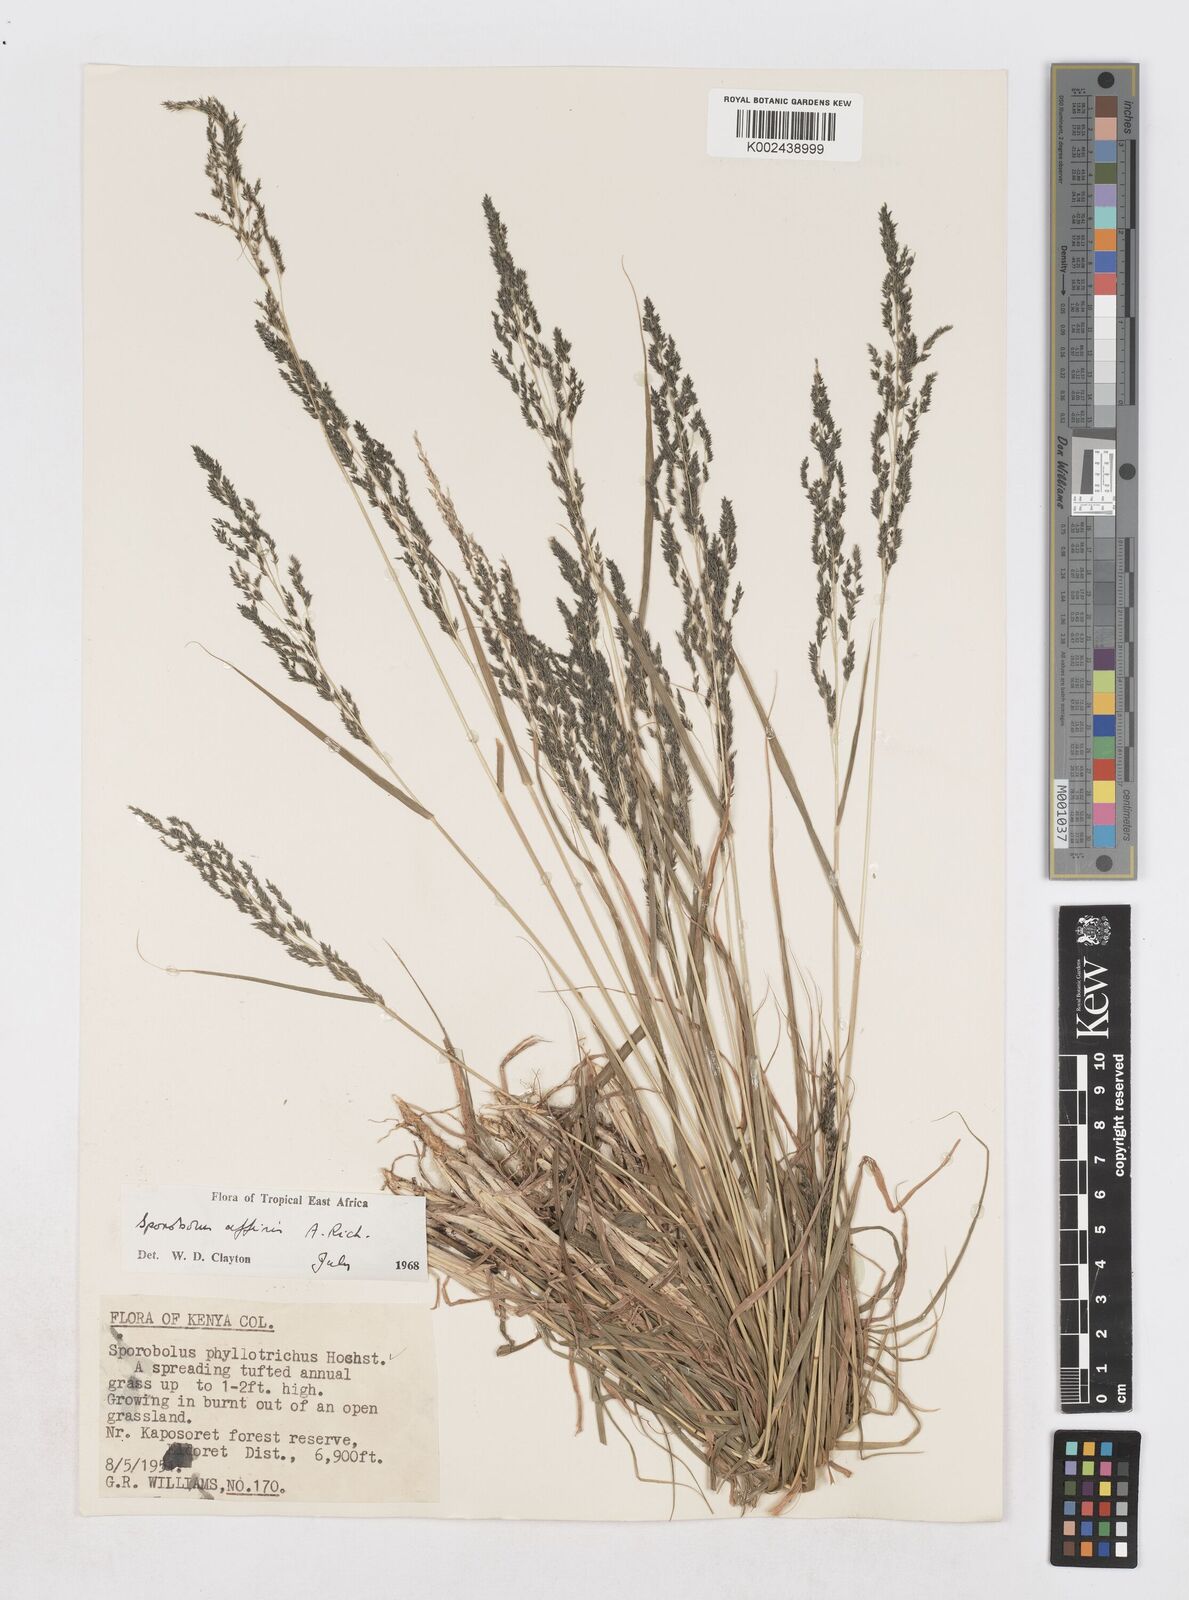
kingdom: Plantae
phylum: Tracheophyta
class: Liliopsida
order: Poales
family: Poaceae
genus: Sporobolus
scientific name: Sporobolus confinis
